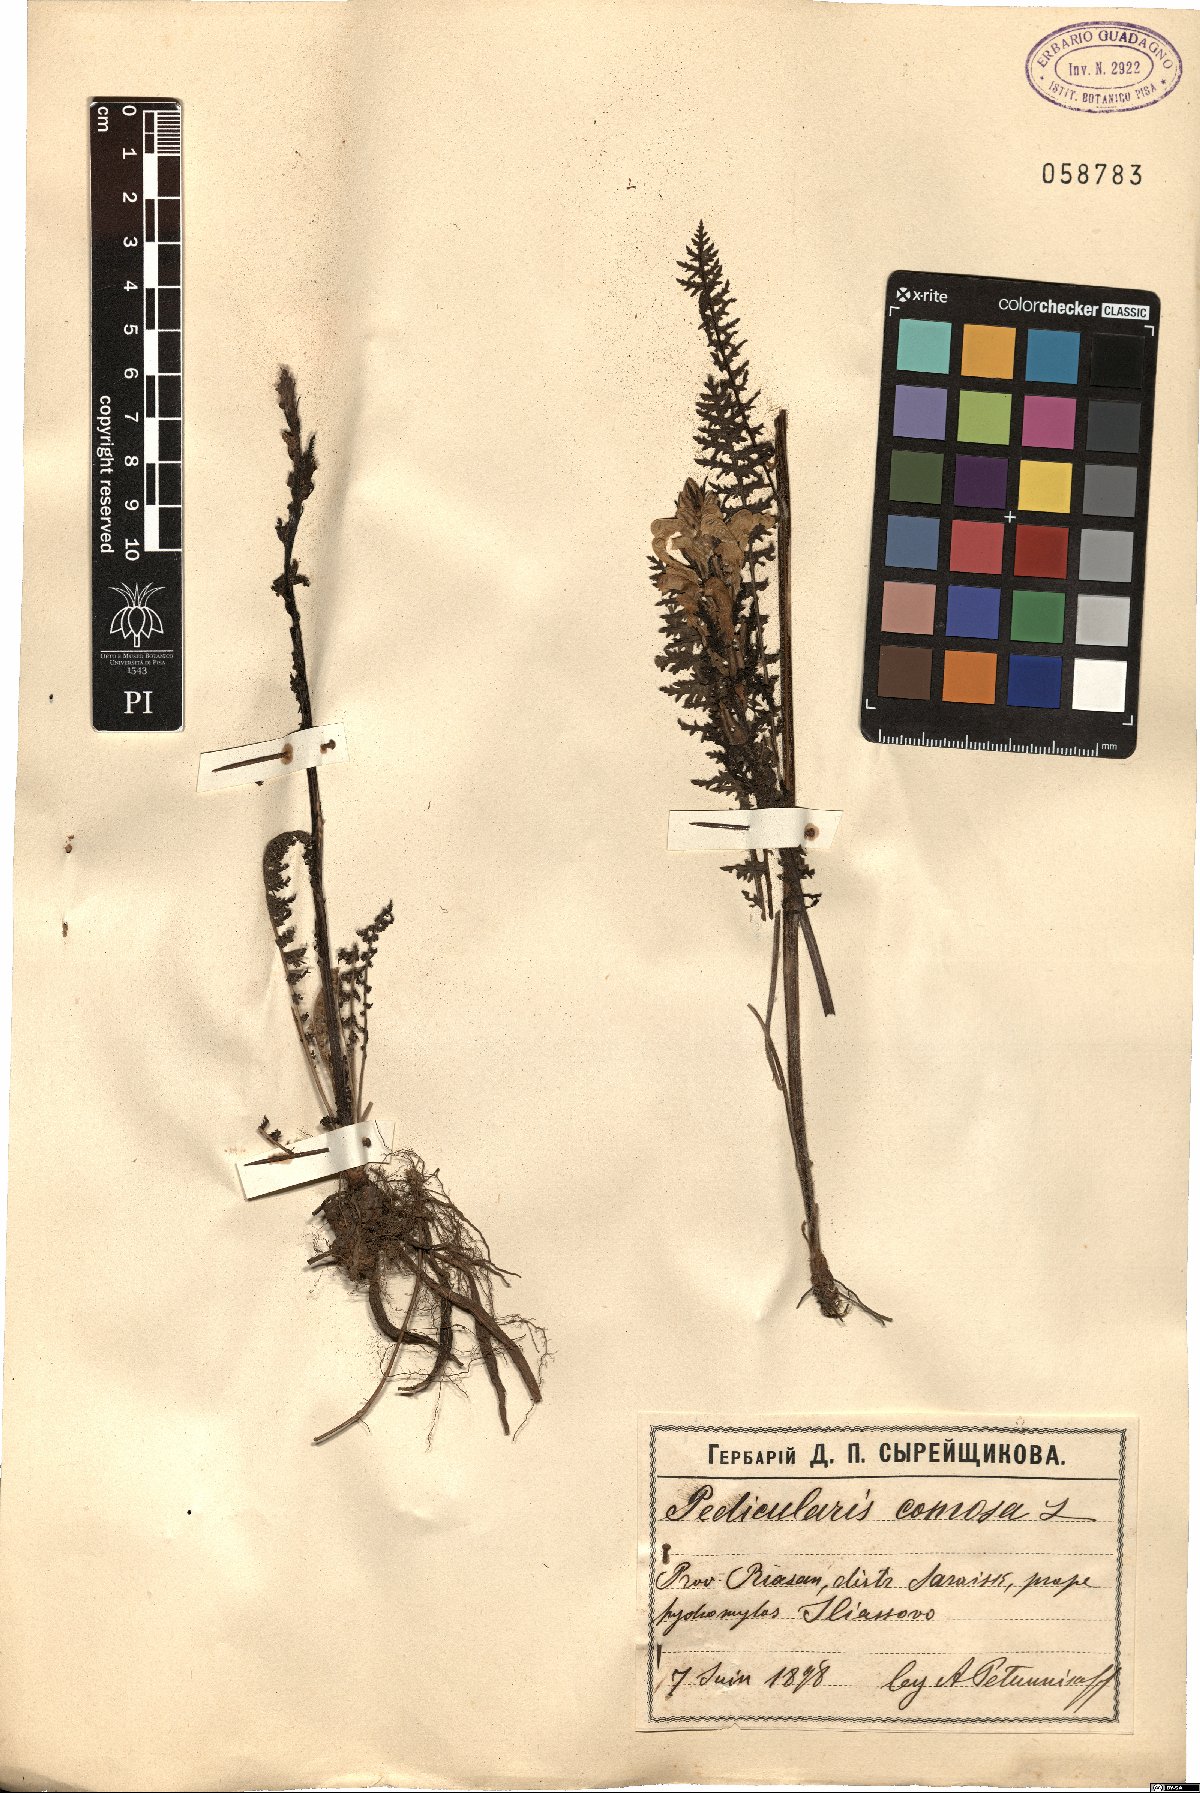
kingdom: Plantae
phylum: Tracheophyta
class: Magnoliopsida
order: Lamiales
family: Orobanchaceae
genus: Pedicularis
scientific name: Pedicularis comosa
